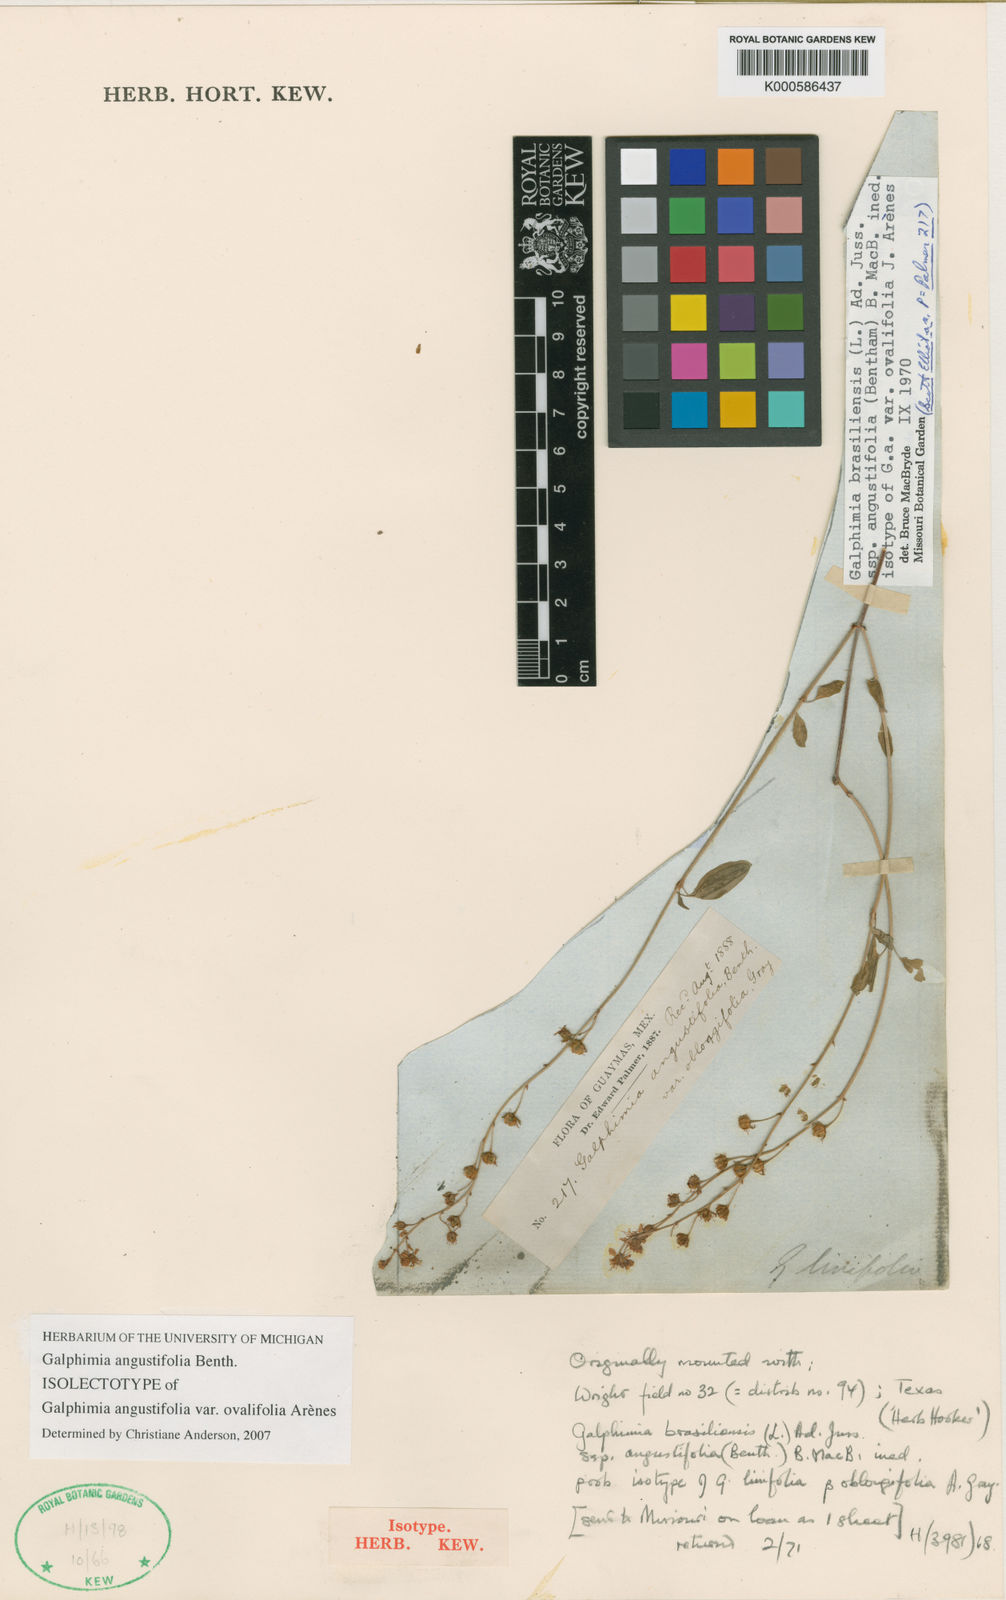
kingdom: Plantae
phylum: Tracheophyta
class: Magnoliopsida
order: Malpighiales
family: Malpighiaceae
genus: Galphimia
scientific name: Galphimia brasiliensis
